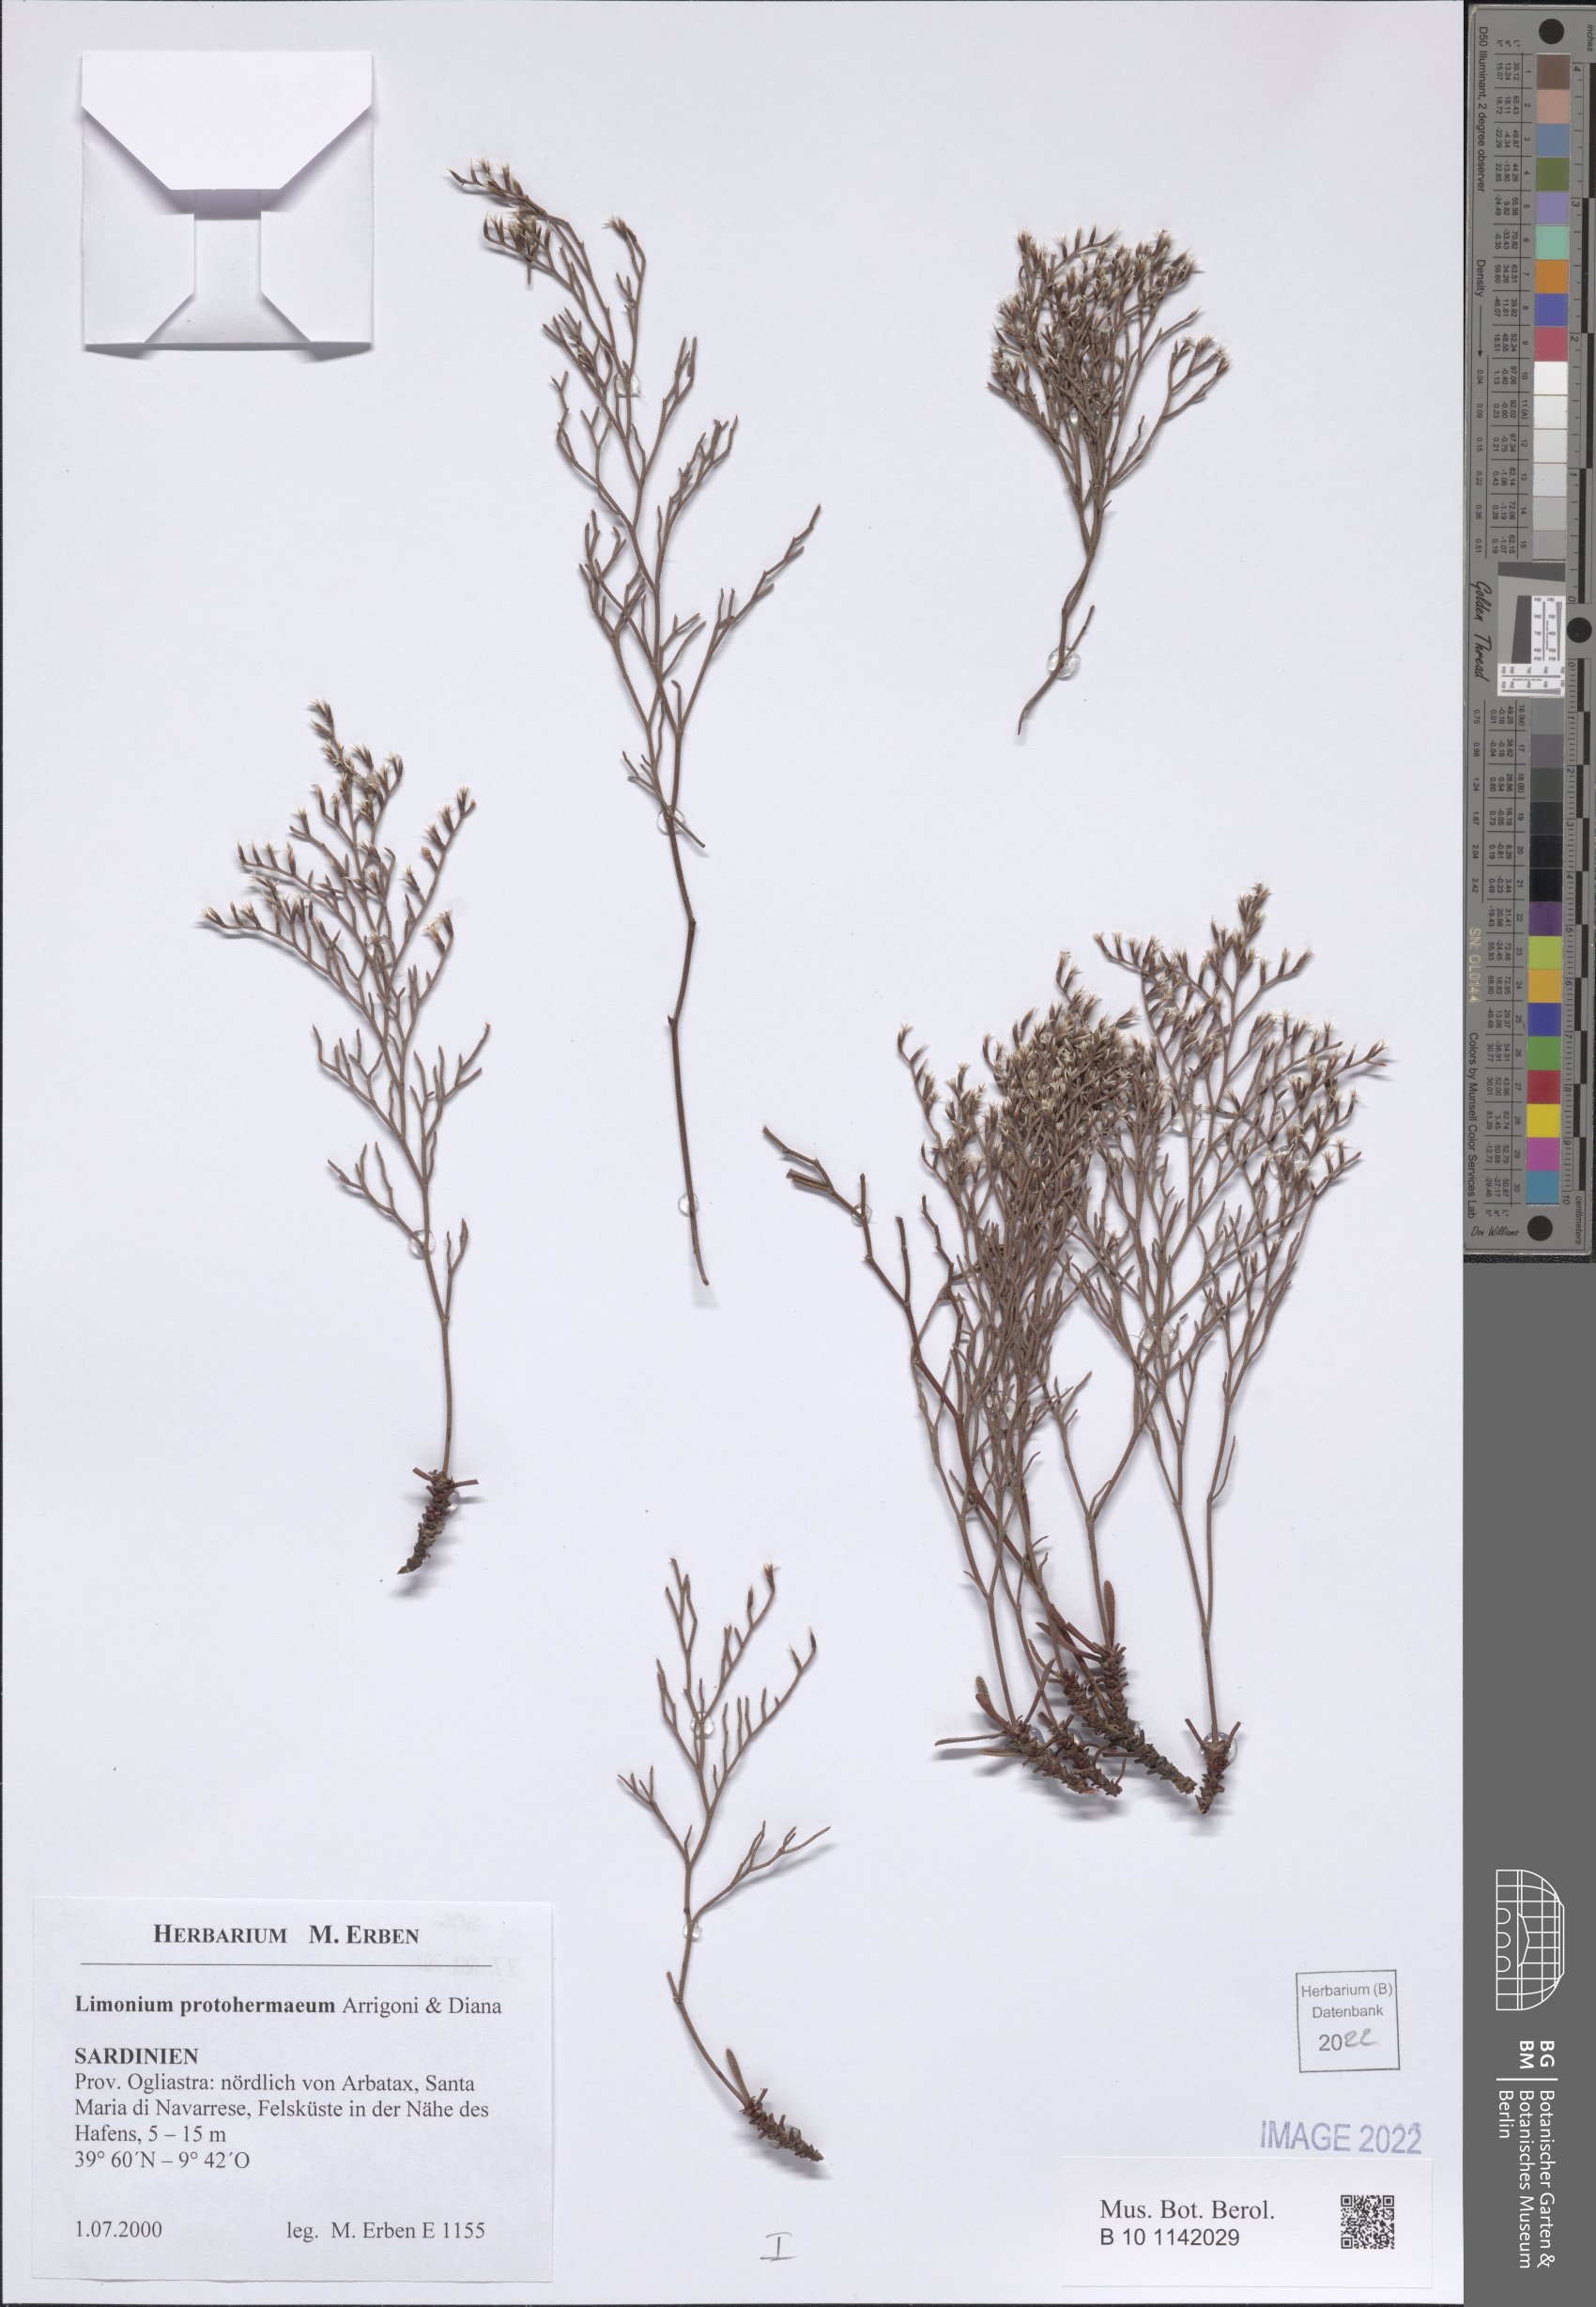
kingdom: Plantae
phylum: Tracheophyta
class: Magnoliopsida
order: Caryophyllales
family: Plumbaginaceae
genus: Limonium
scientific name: Limonium protohermaeum
